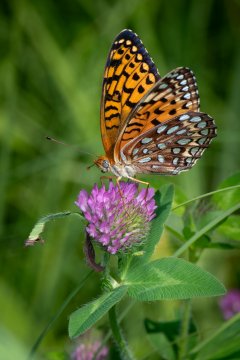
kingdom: Animalia
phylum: Arthropoda
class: Insecta
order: Lepidoptera
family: Nymphalidae
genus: Speyeria
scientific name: Speyeria atlantis
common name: Atlantis Fritillary
